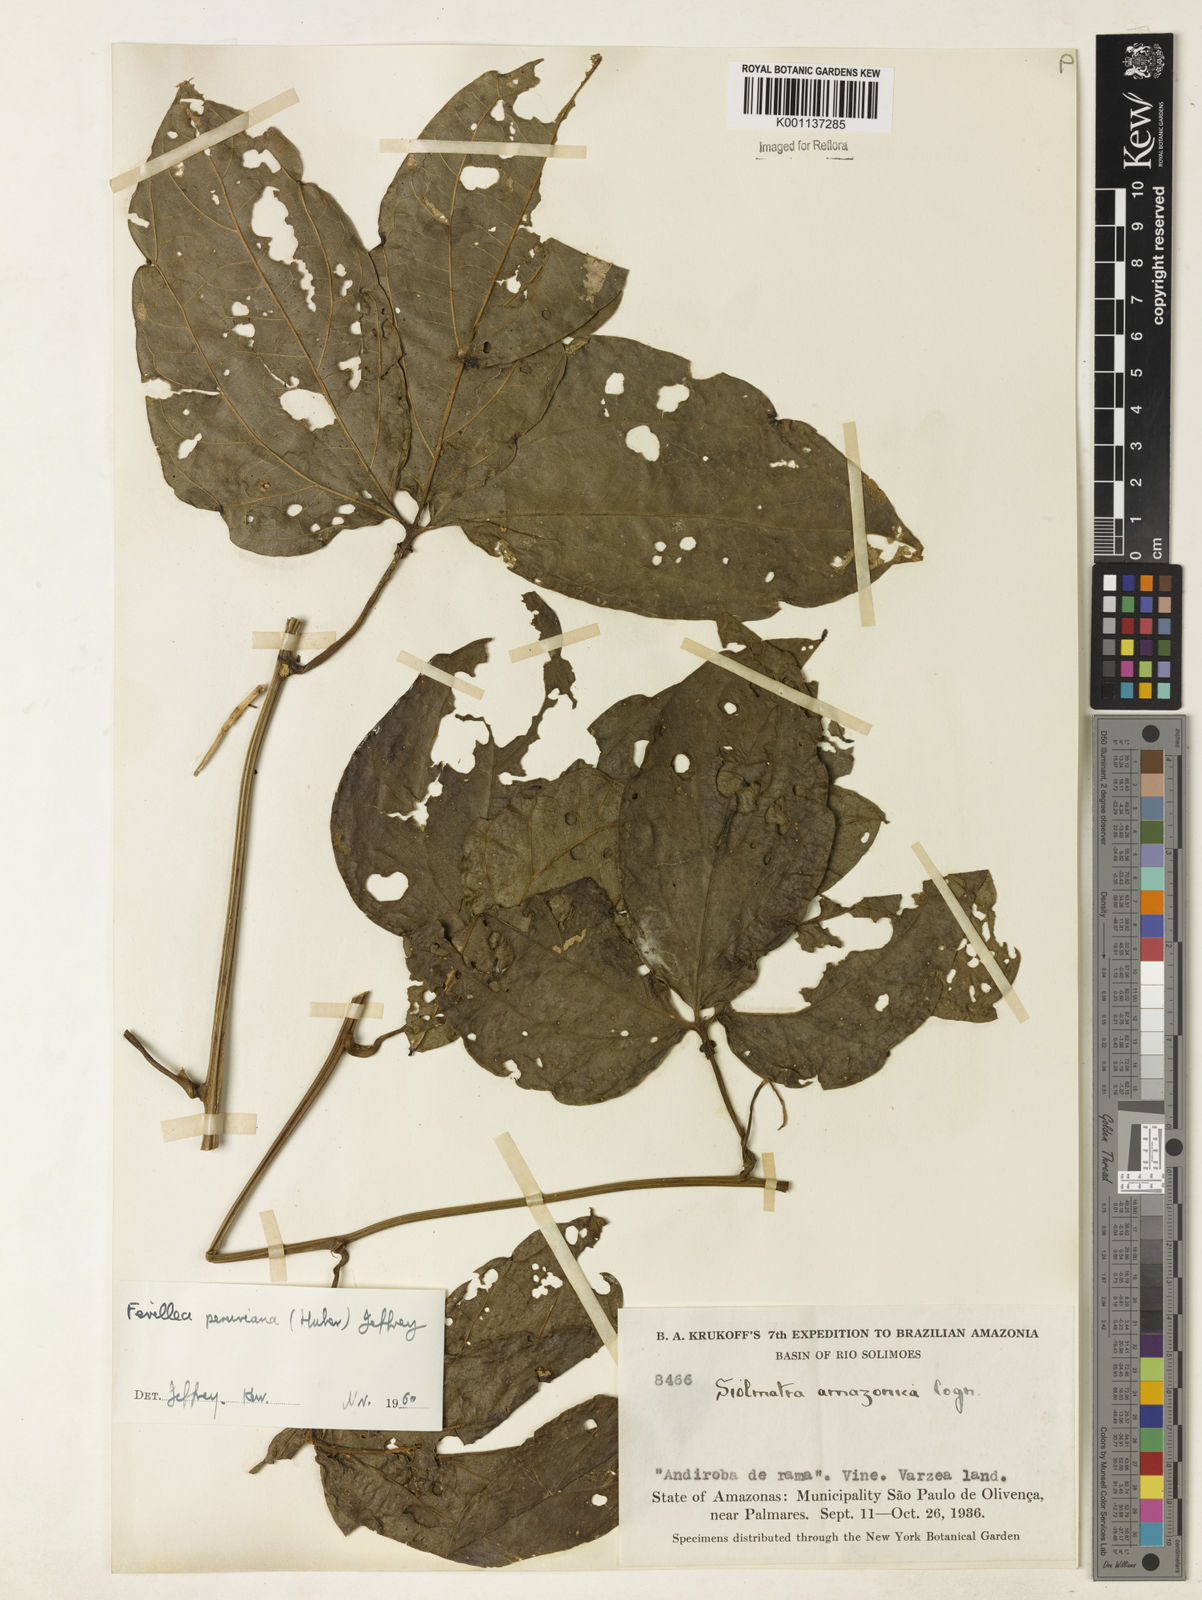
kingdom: Plantae
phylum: Tracheophyta
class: Magnoliopsida
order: Cucurbitales
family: Cucurbitaceae
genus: Fevillea
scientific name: Fevillea pedatifolia
